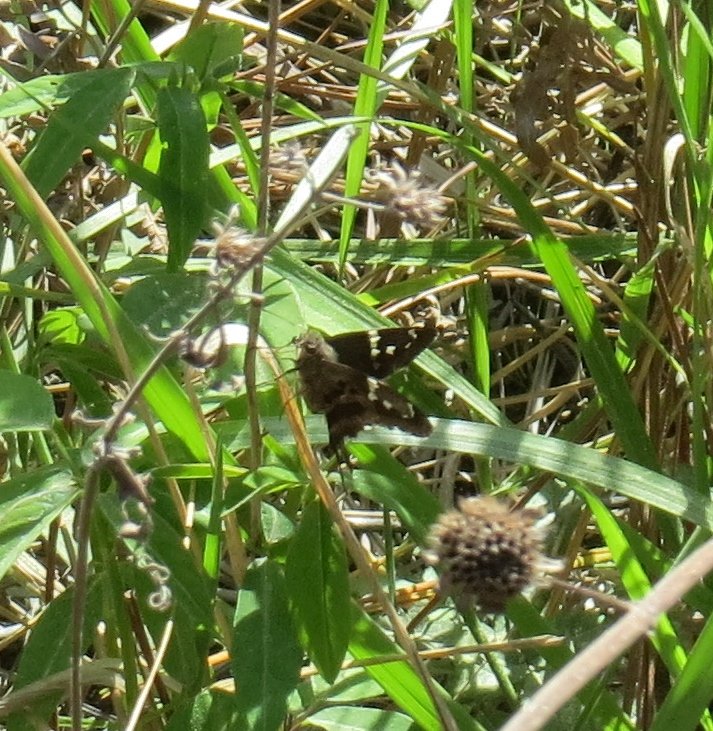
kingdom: Animalia
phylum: Arthropoda
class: Insecta
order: Lepidoptera
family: Hesperiidae
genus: Urbanus
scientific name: Urbanus proteus
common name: Long-tailed Skipper
